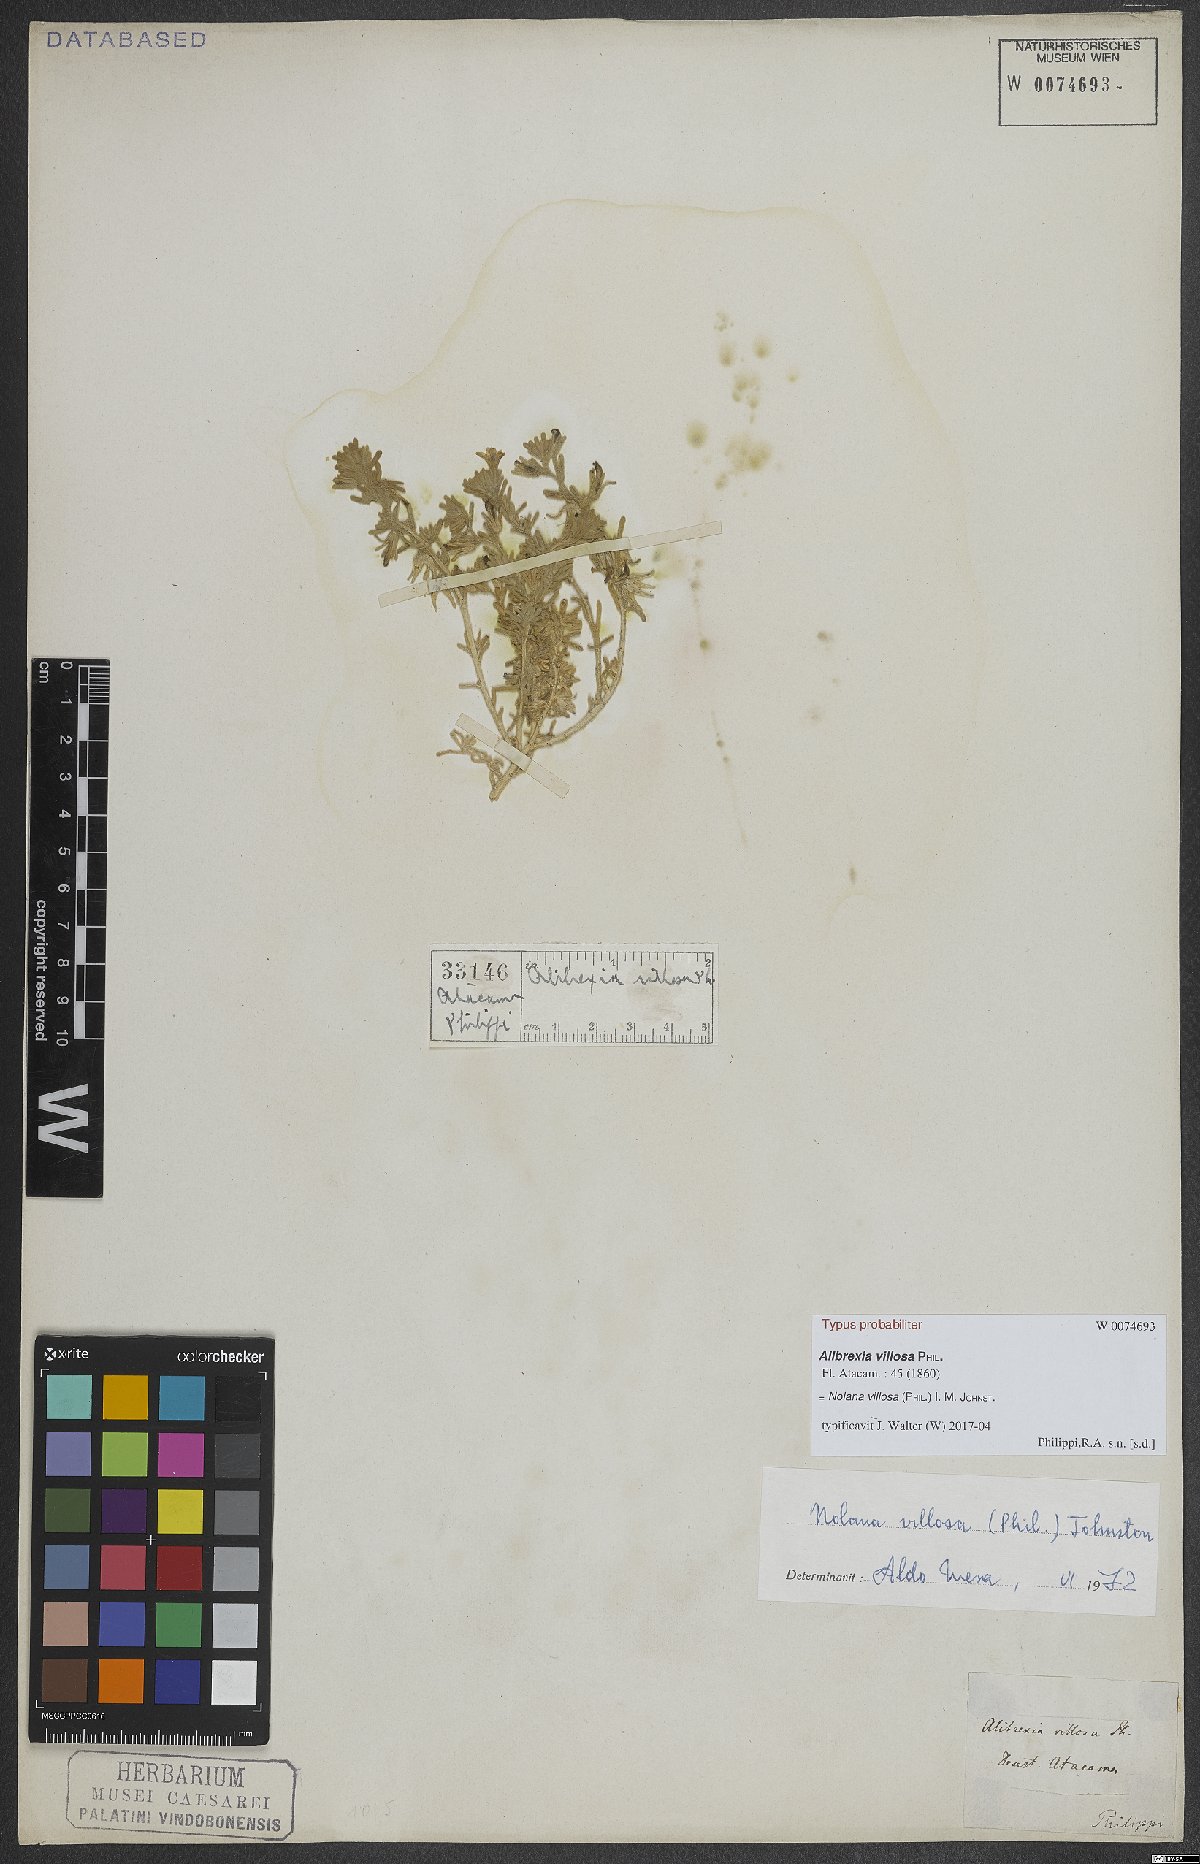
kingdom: Plantae
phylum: Tracheophyta
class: Magnoliopsida
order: Solanales
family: Solanaceae
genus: Nolana
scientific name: Nolana villosa
